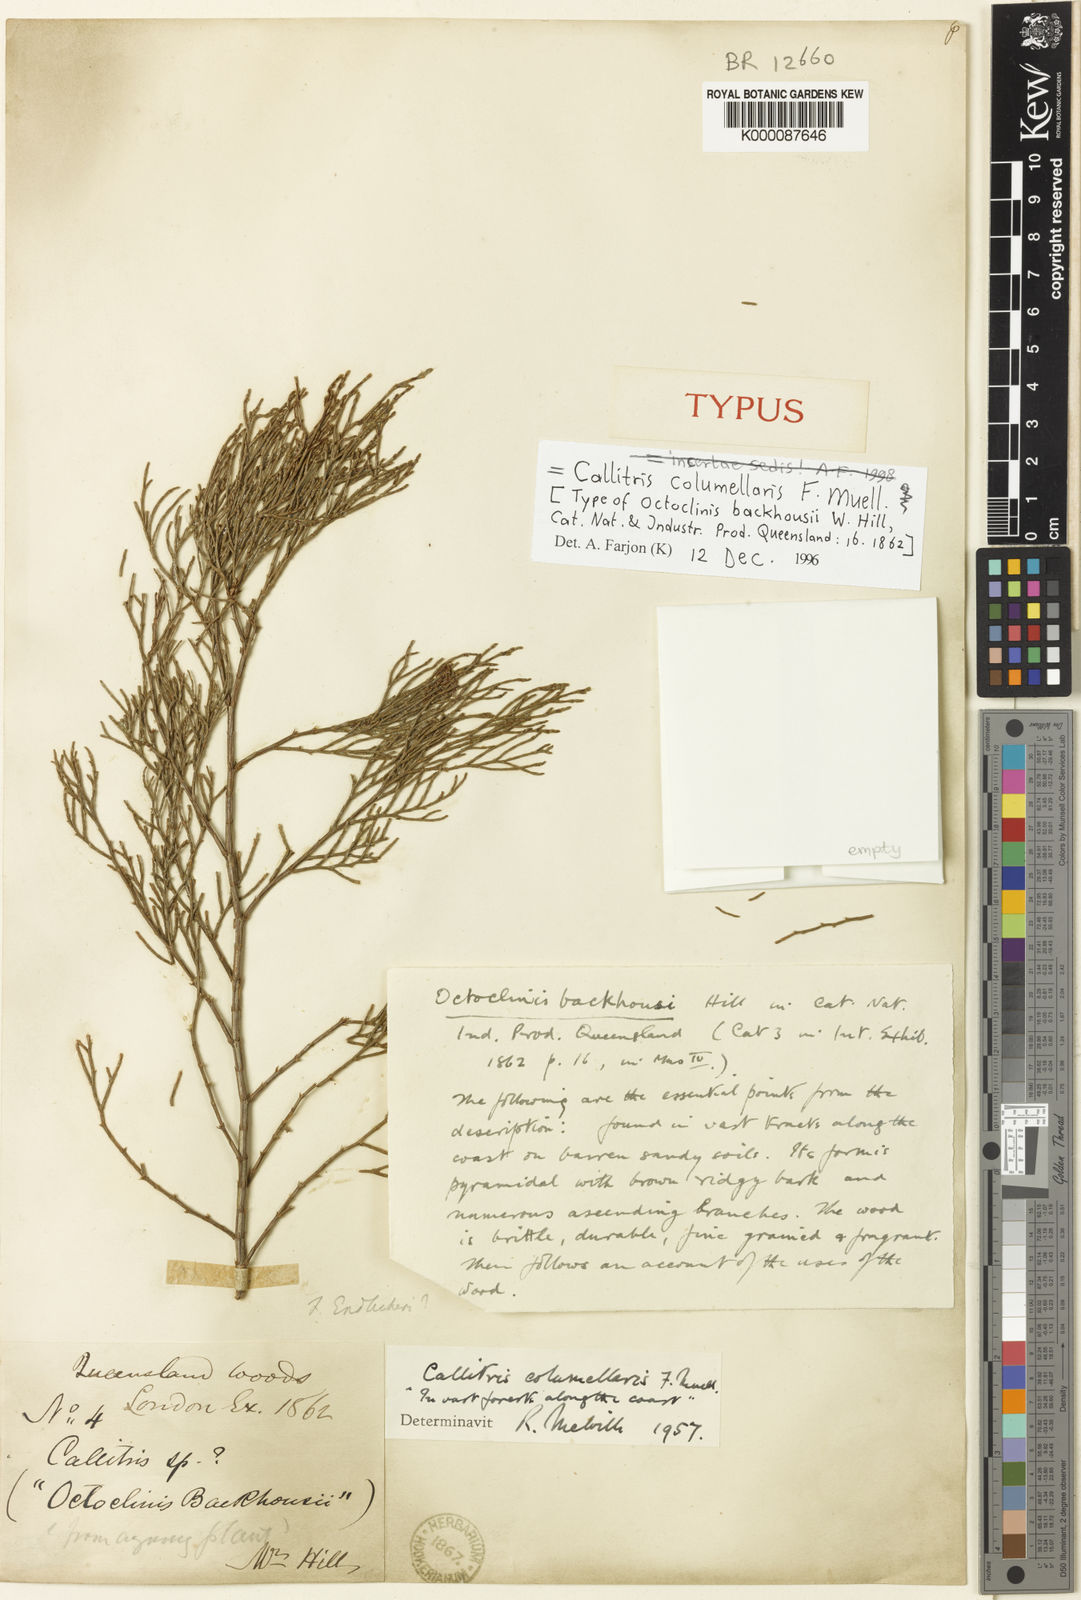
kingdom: Plantae
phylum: Tracheophyta
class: Pinopsida
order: Pinales
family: Cupressaceae
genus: Callitris
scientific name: Callitris columellaris
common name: White cypress-pine
